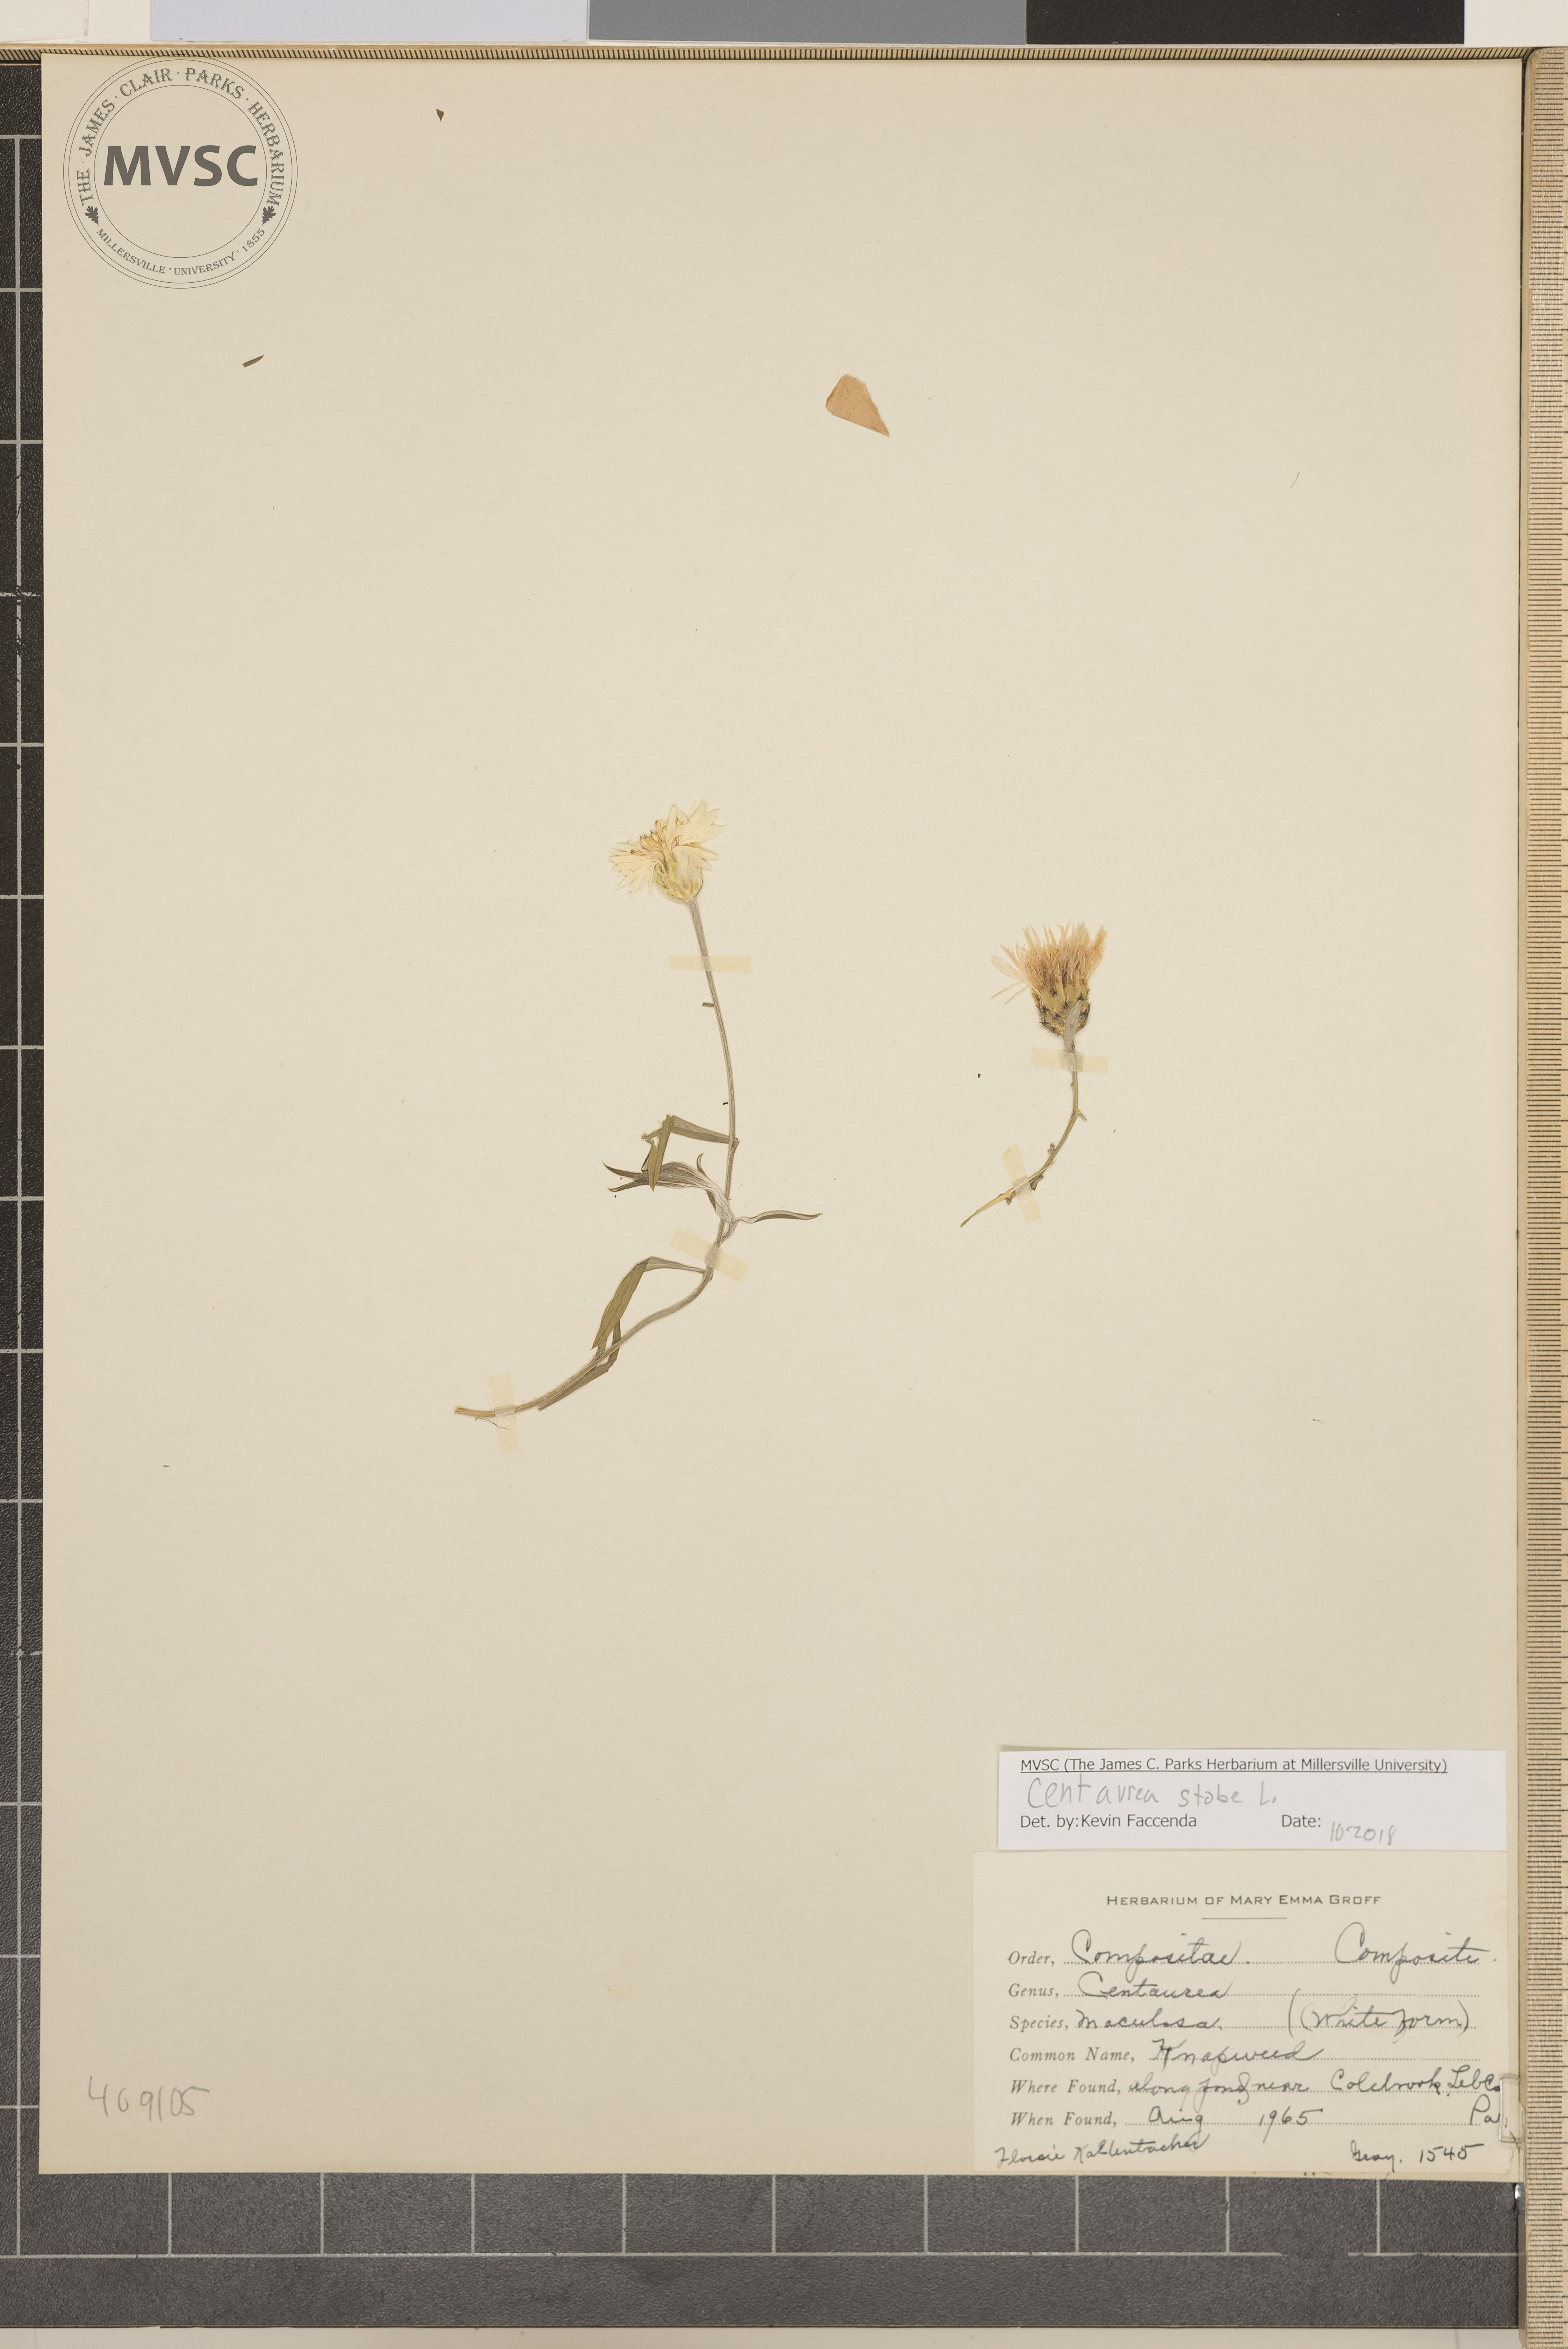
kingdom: Plantae
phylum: Tracheophyta
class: Magnoliopsida
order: Asterales
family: Asteraceae
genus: Centaurea
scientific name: Centaurea stoebe
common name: Knapweed
